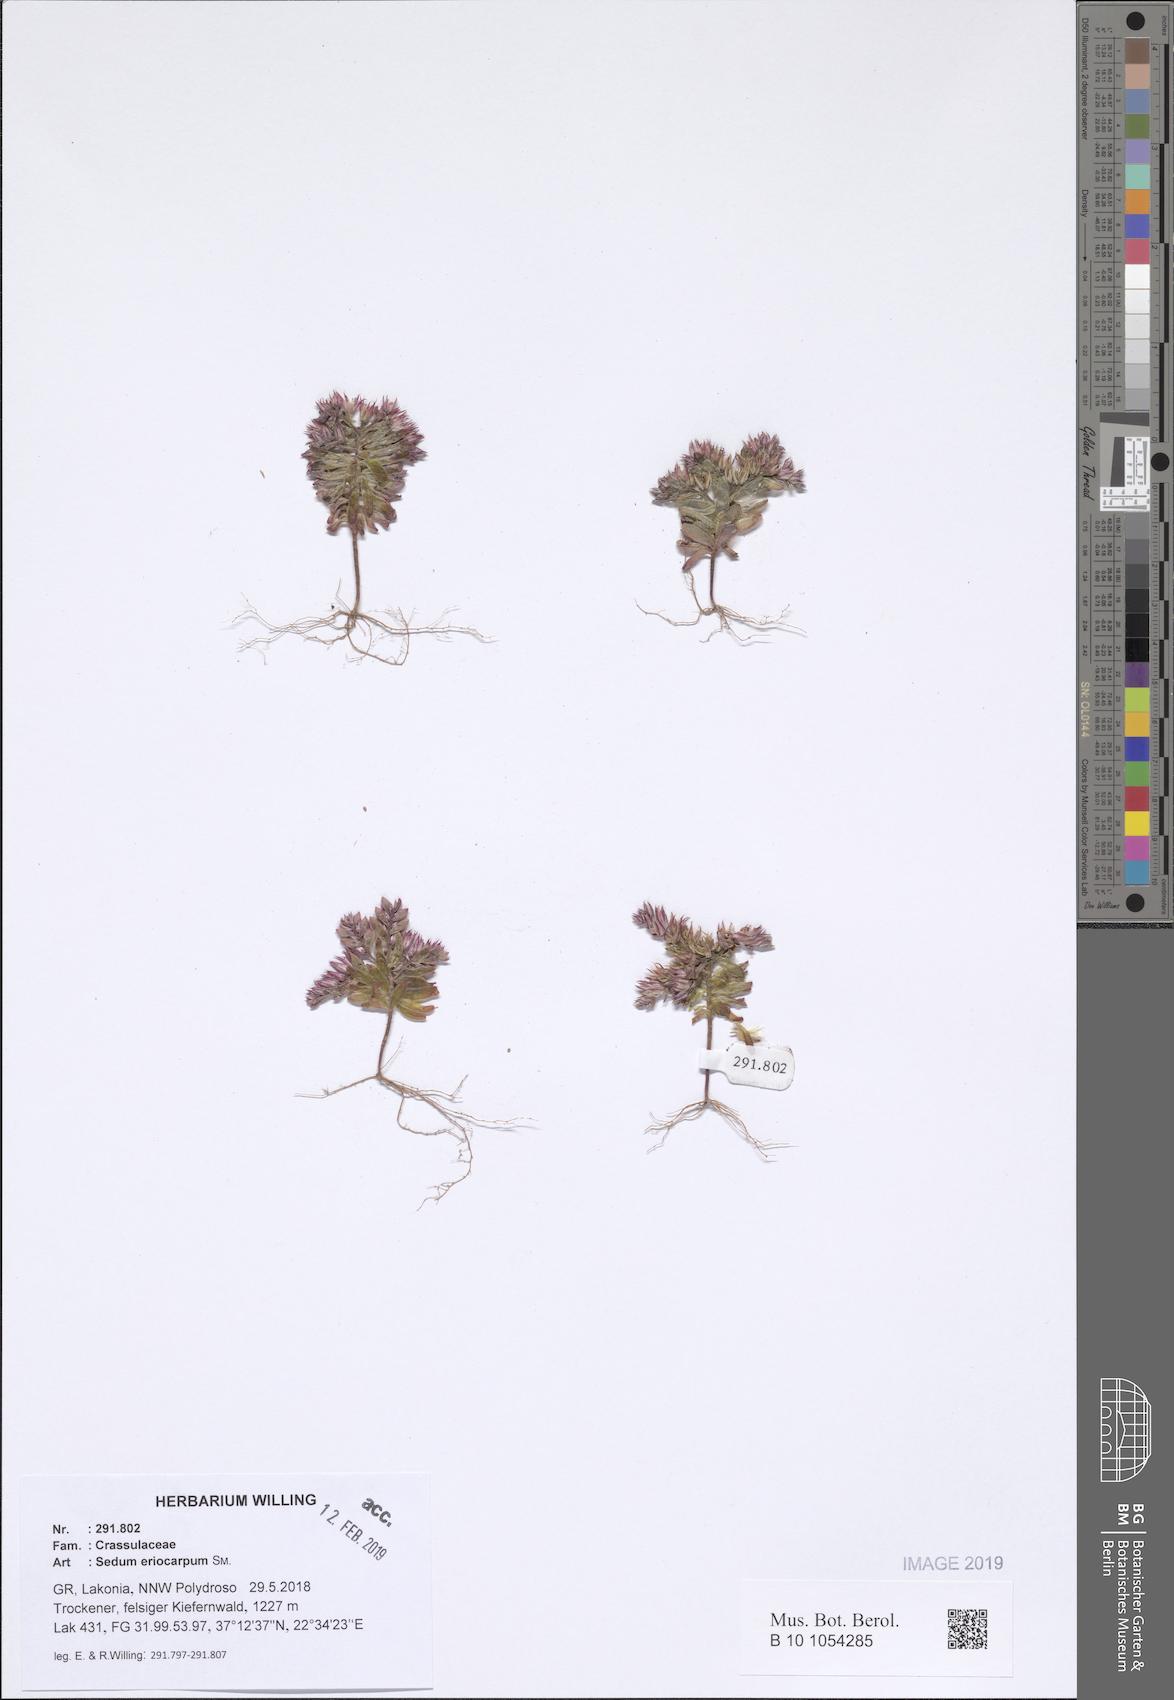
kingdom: Plantae
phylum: Tracheophyta
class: Magnoliopsida
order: Saxifragales
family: Crassulaceae
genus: Sedum
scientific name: Sedum eriocarpum
